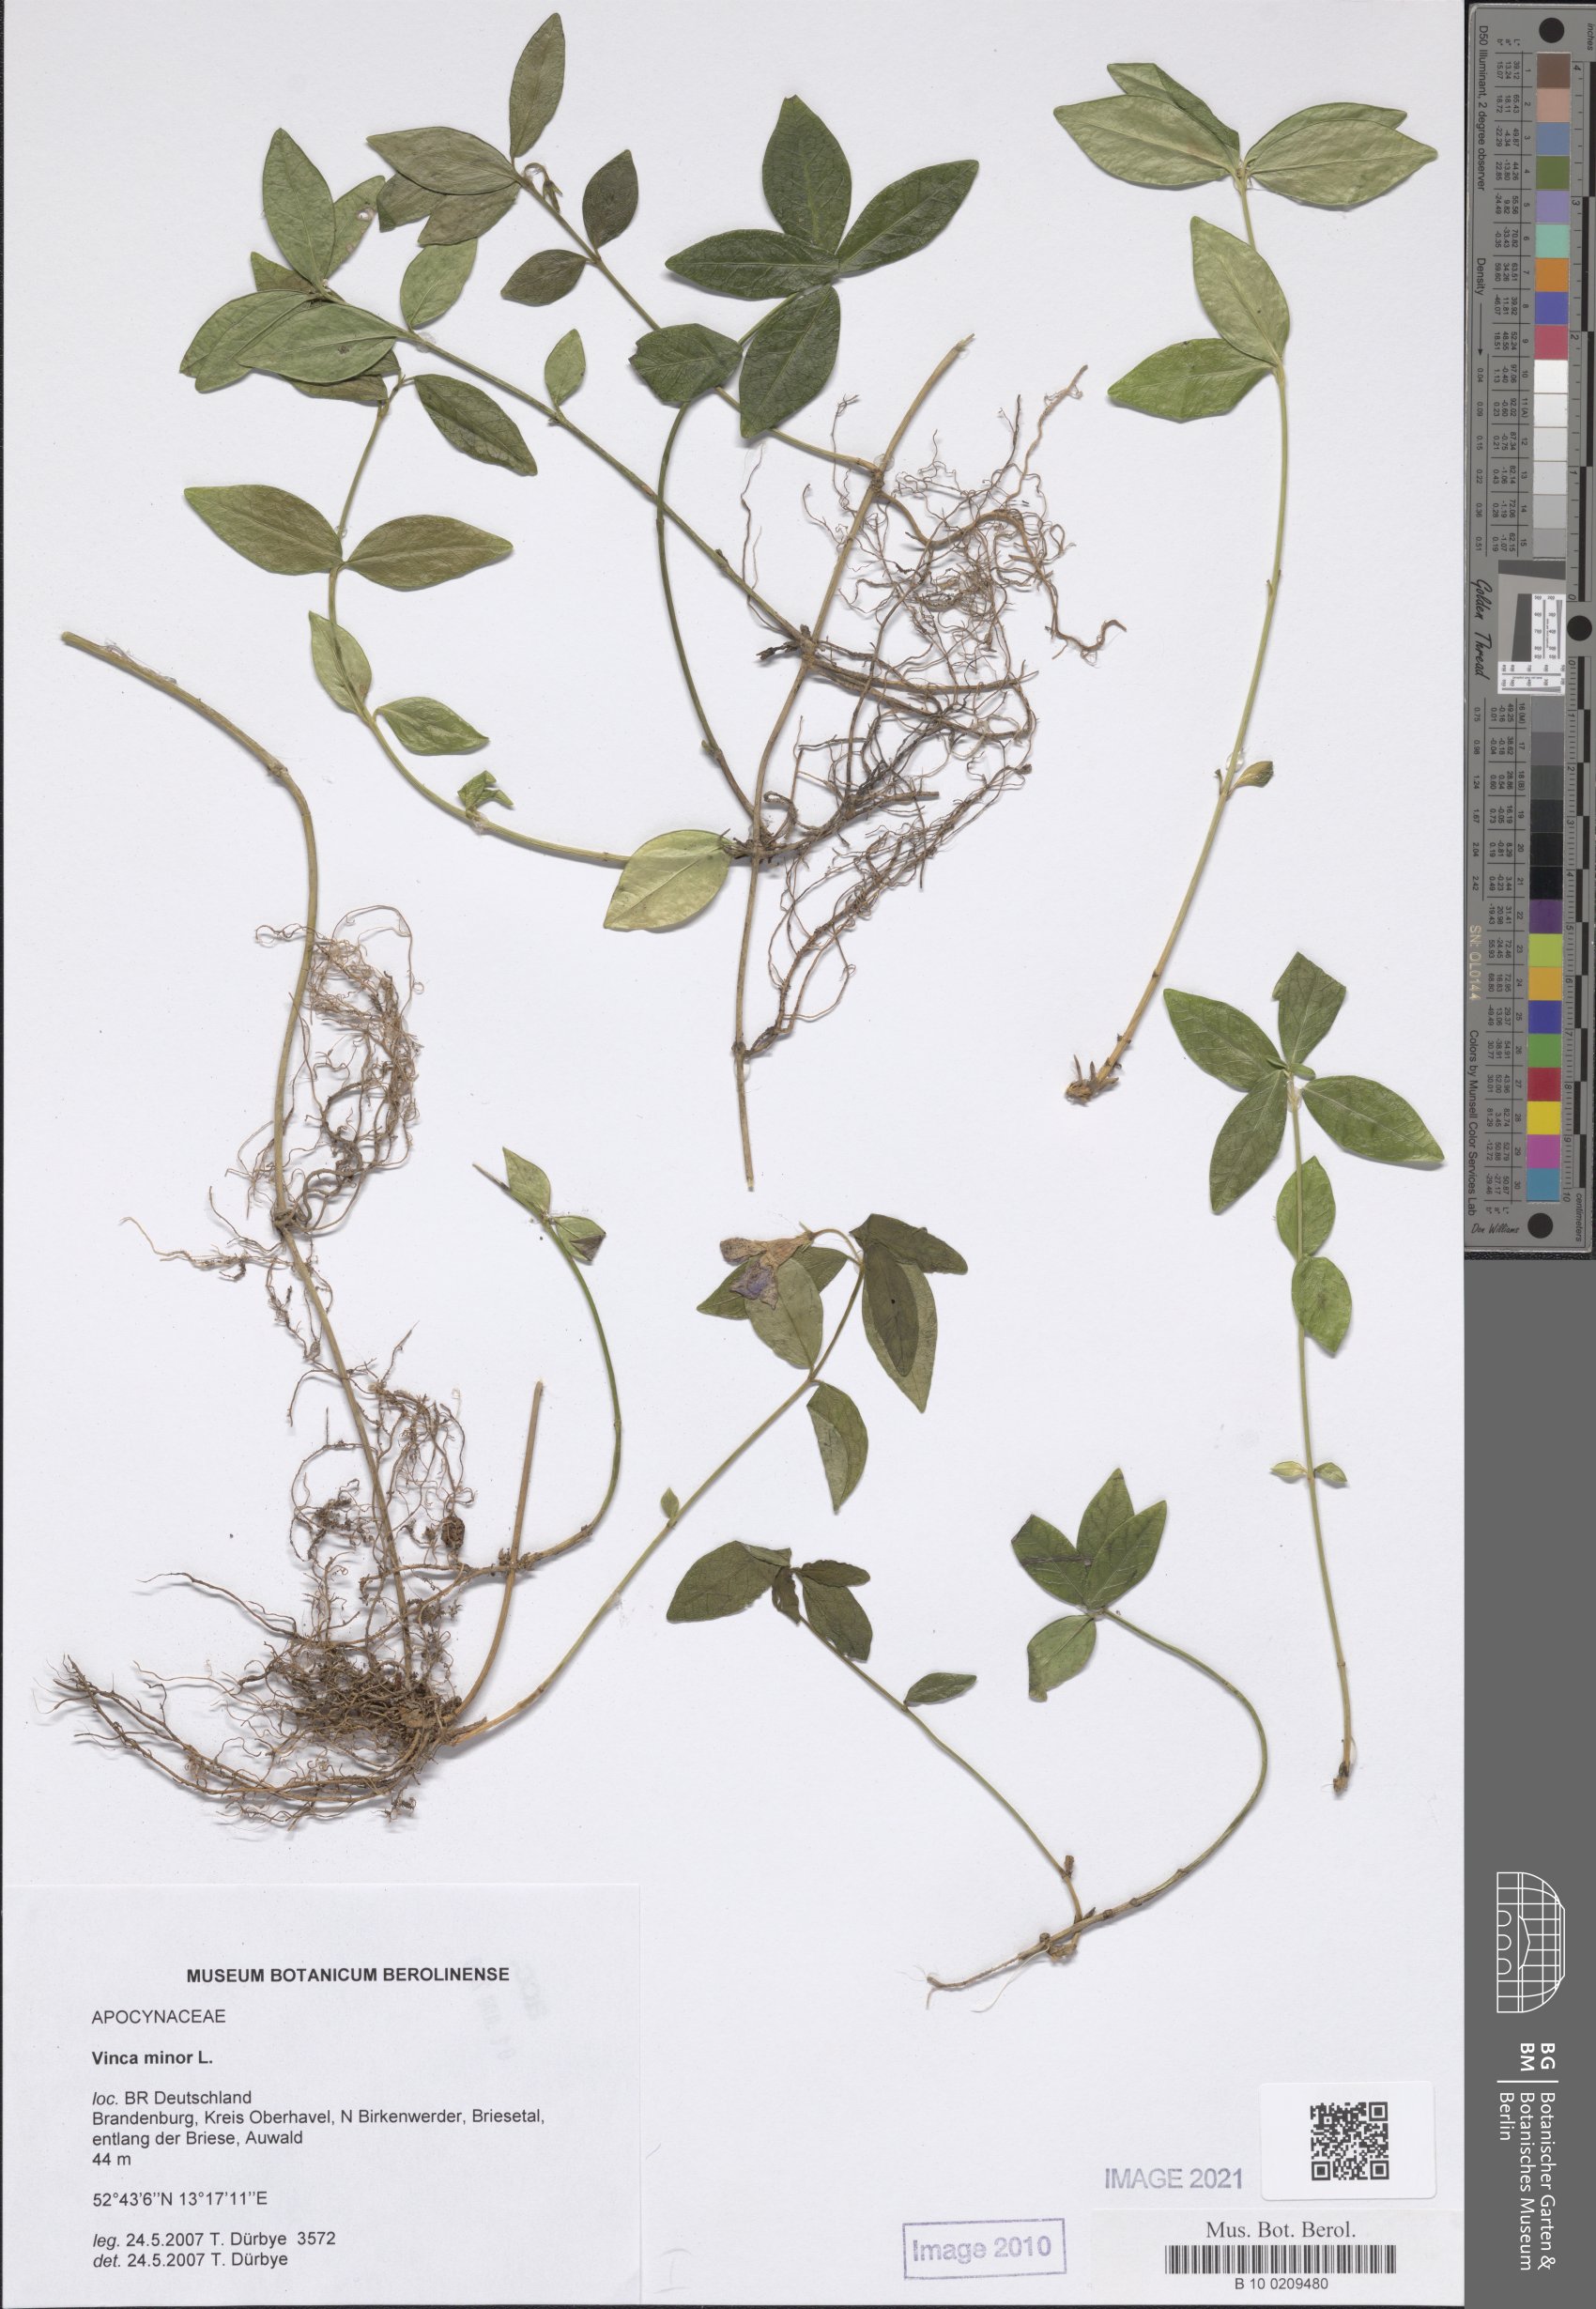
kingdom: Plantae
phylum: Tracheophyta
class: Magnoliopsida
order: Gentianales
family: Apocynaceae
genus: Vinca
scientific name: Vinca minor
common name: Lesser periwinkle
